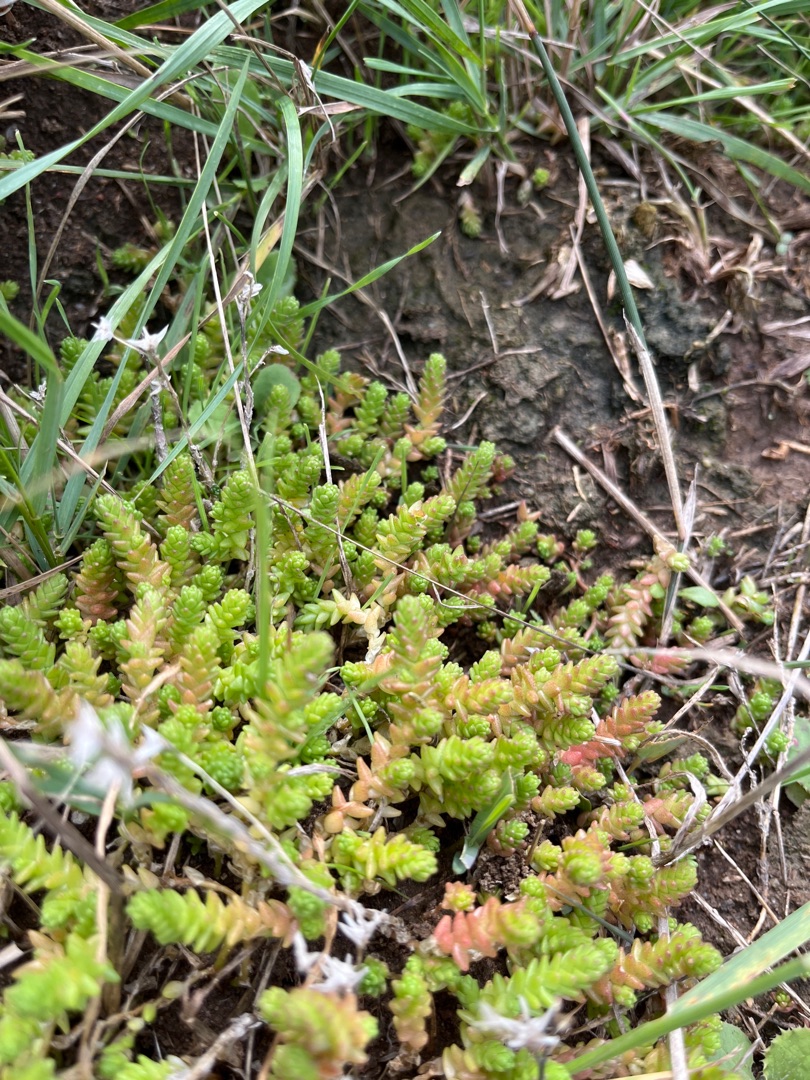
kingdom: Plantae
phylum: Tracheophyta
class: Magnoliopsida
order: Saxifragales
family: Crassulaceae
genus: Sedum
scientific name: Sedum acre
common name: Bidende stenurt
